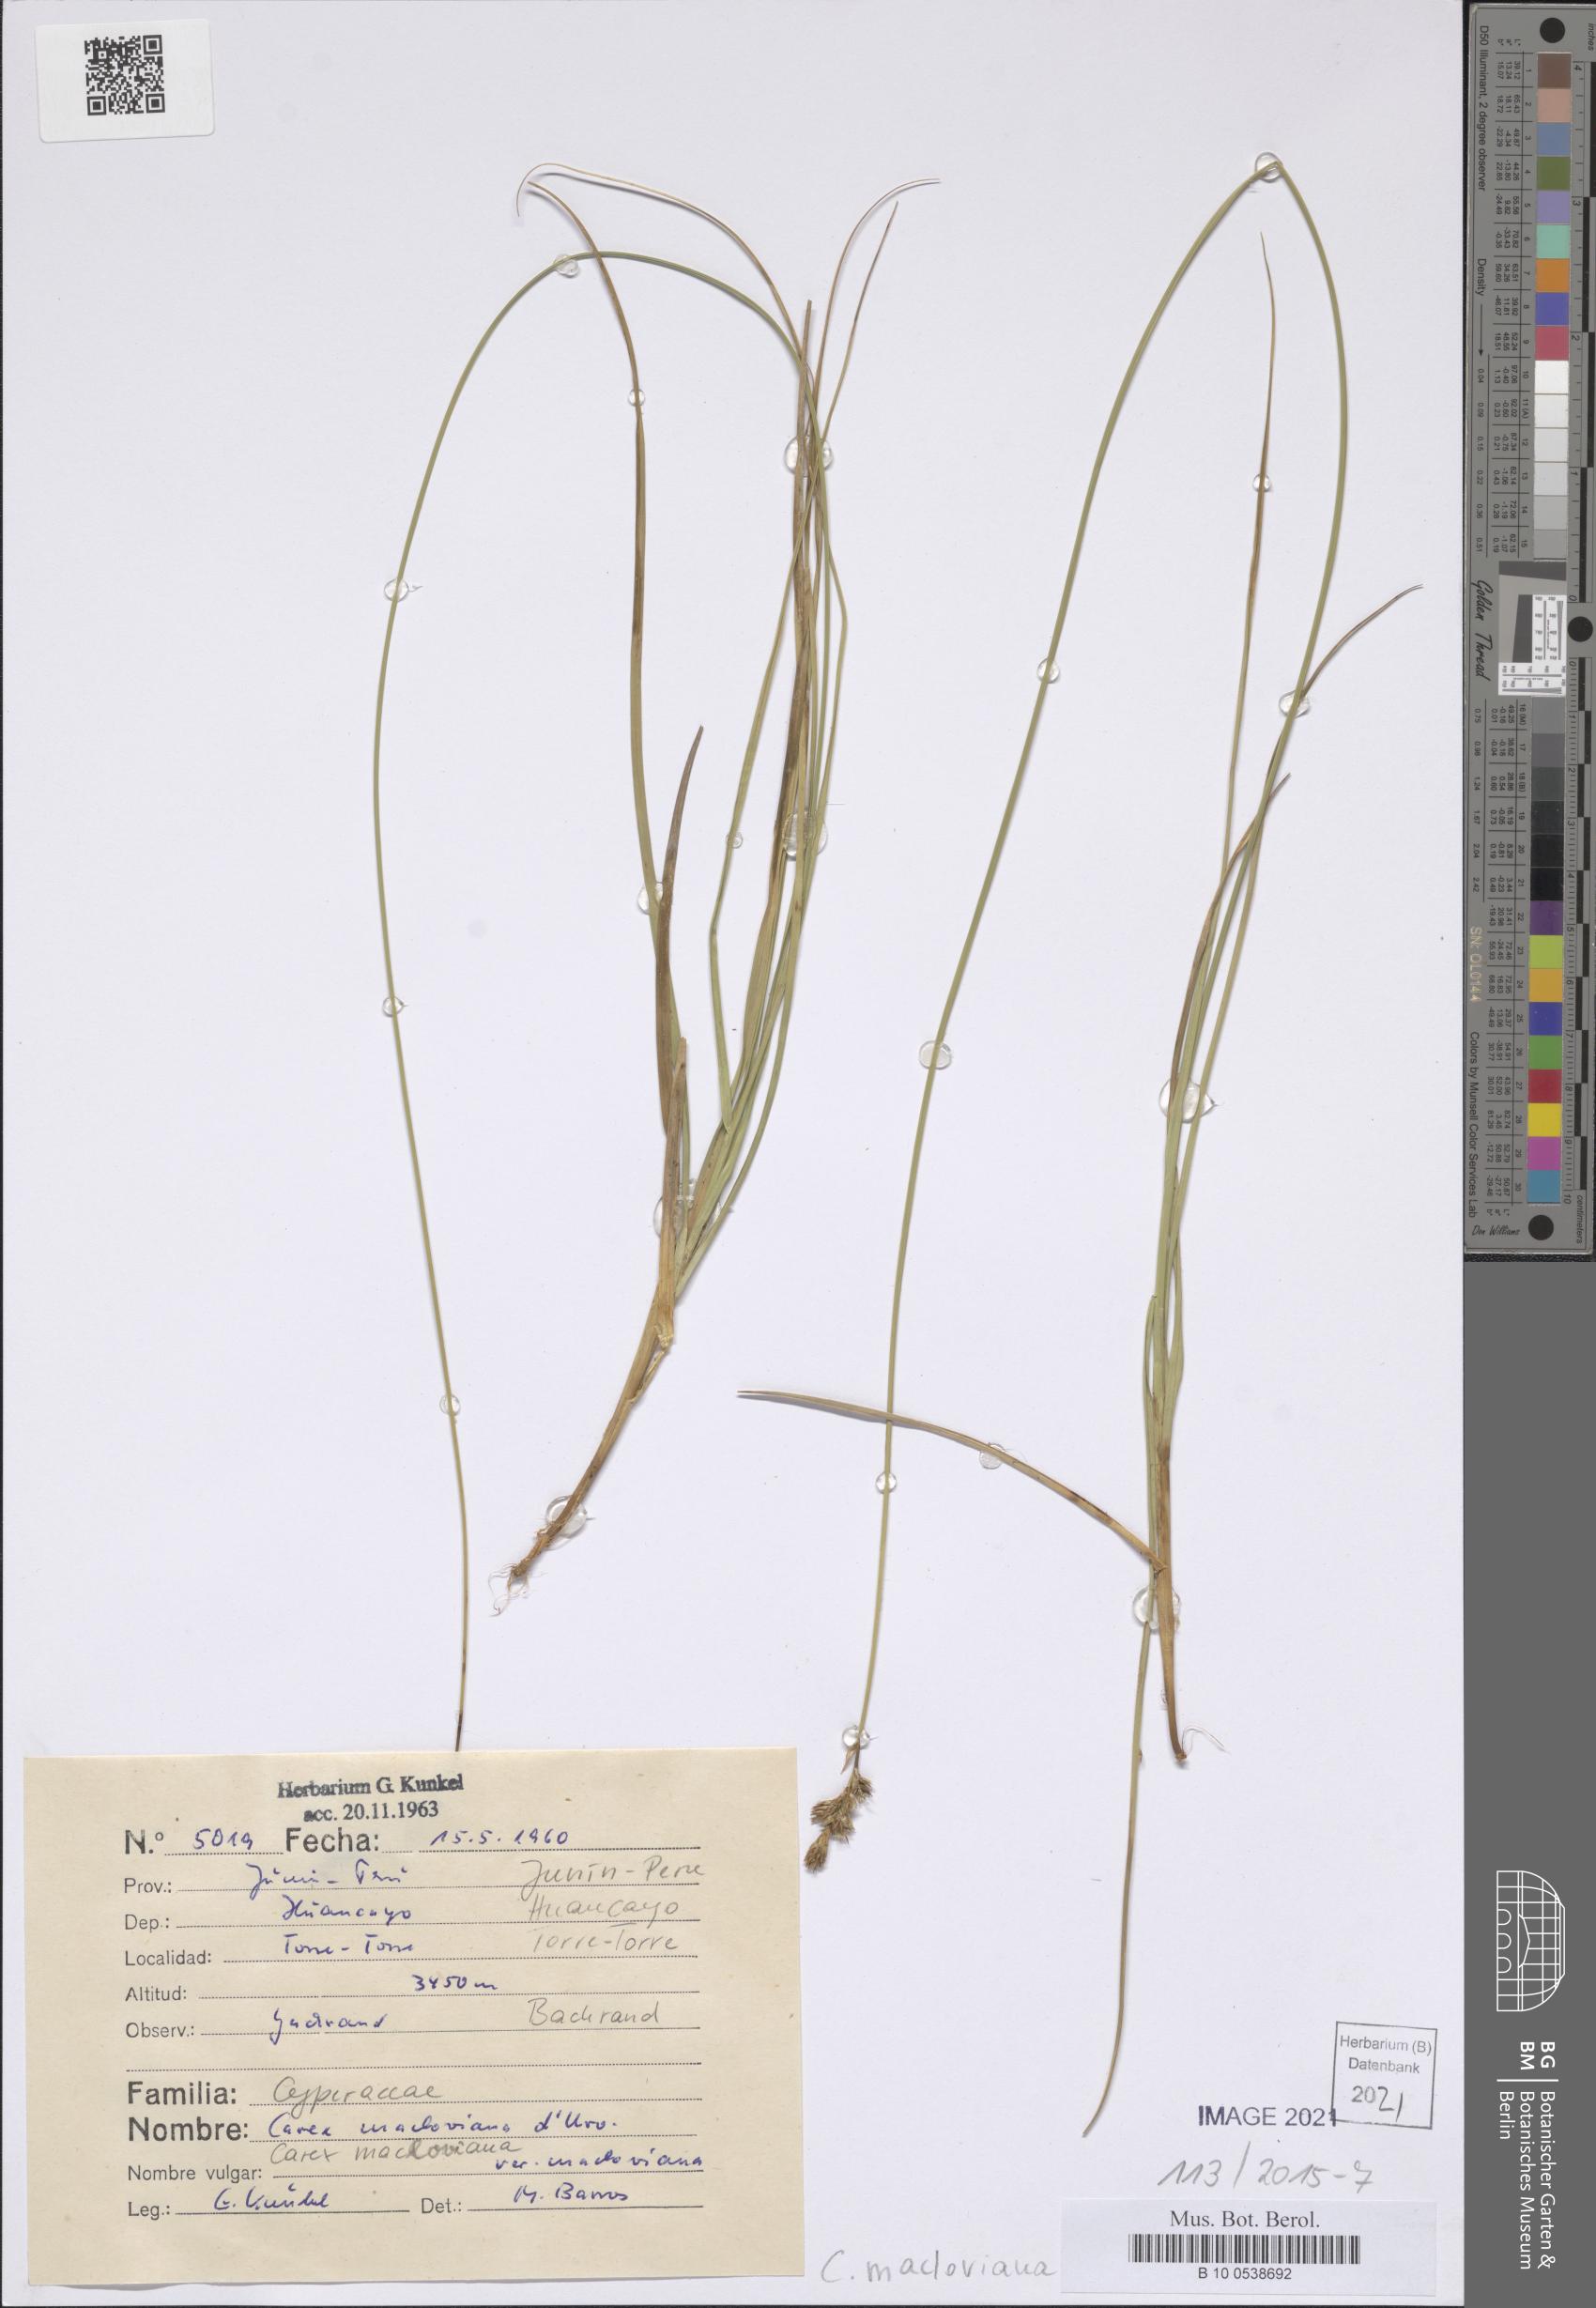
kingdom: Plantae
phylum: Tracheophyta
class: Liliopsida
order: Poales
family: Cyperaceae
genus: Carex
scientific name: Carex macloviana
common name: Falkland island sedge
